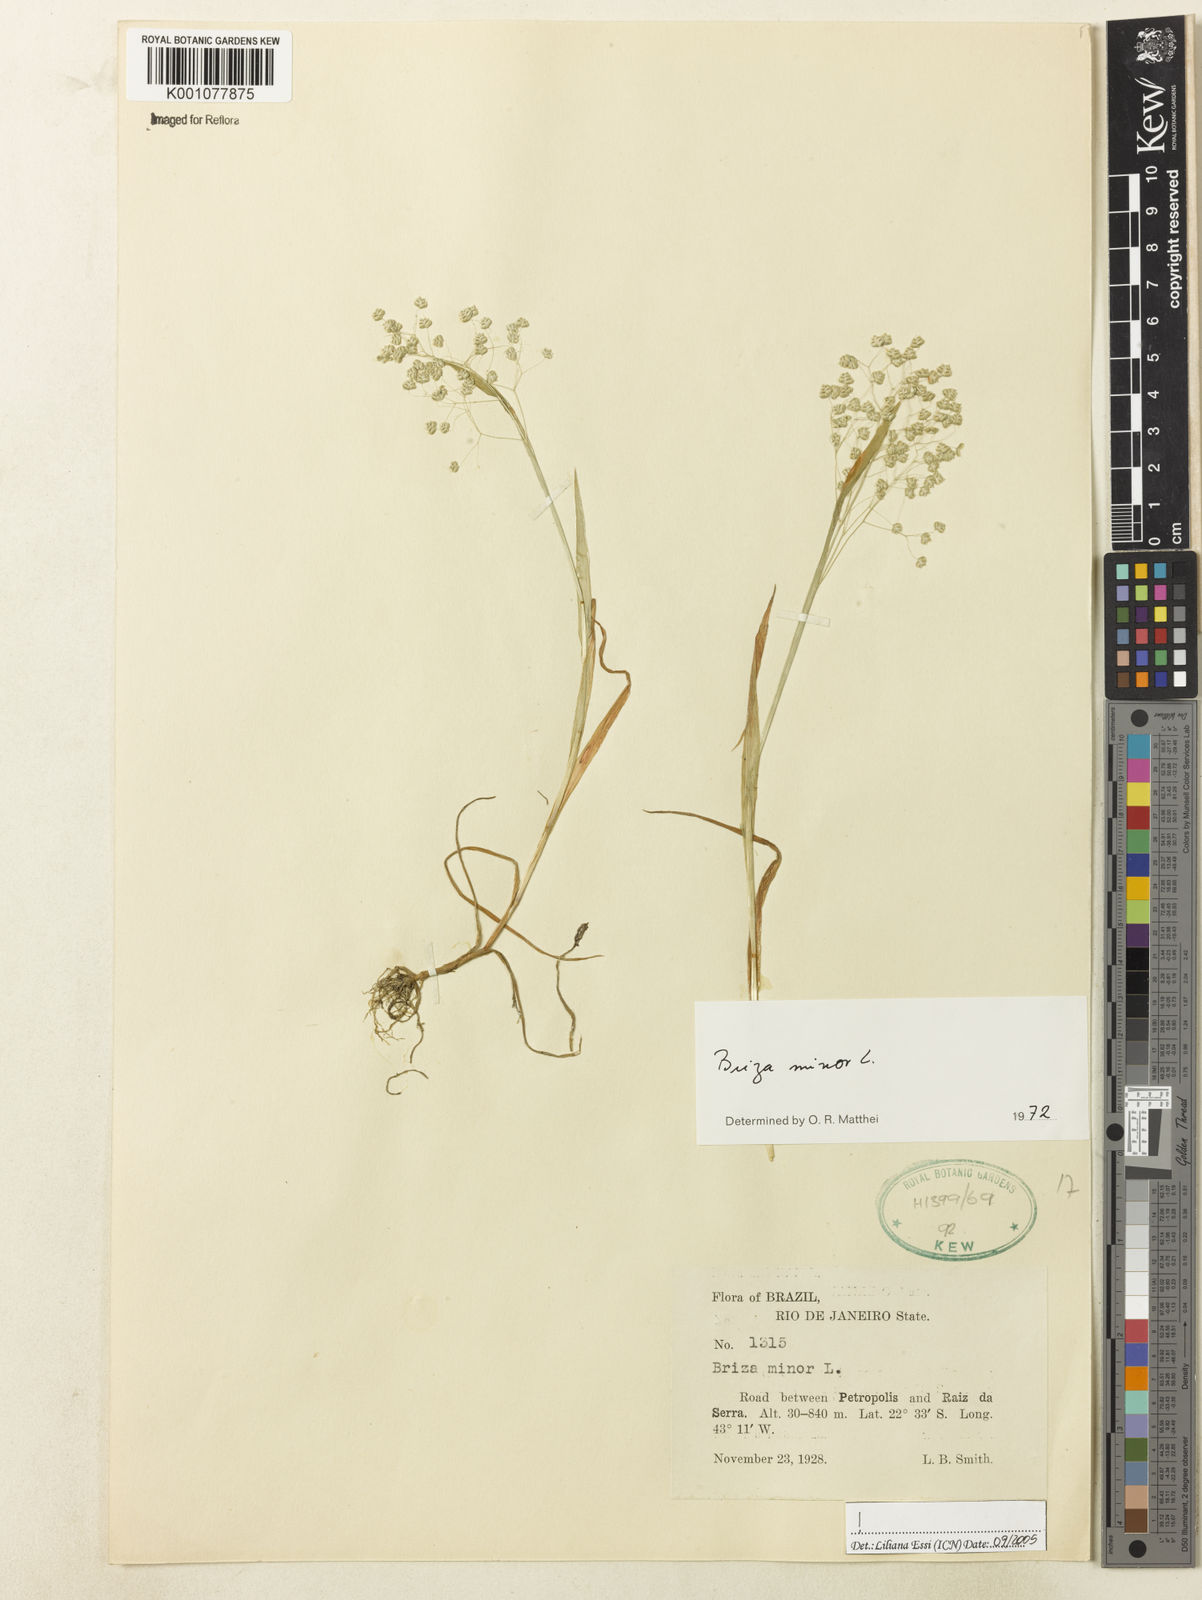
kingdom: Plantae
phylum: Tracheophyta
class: Liliopsida
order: Poales
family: Poaceae
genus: Briza
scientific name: Briza minor
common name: Lesser quaking-grass
